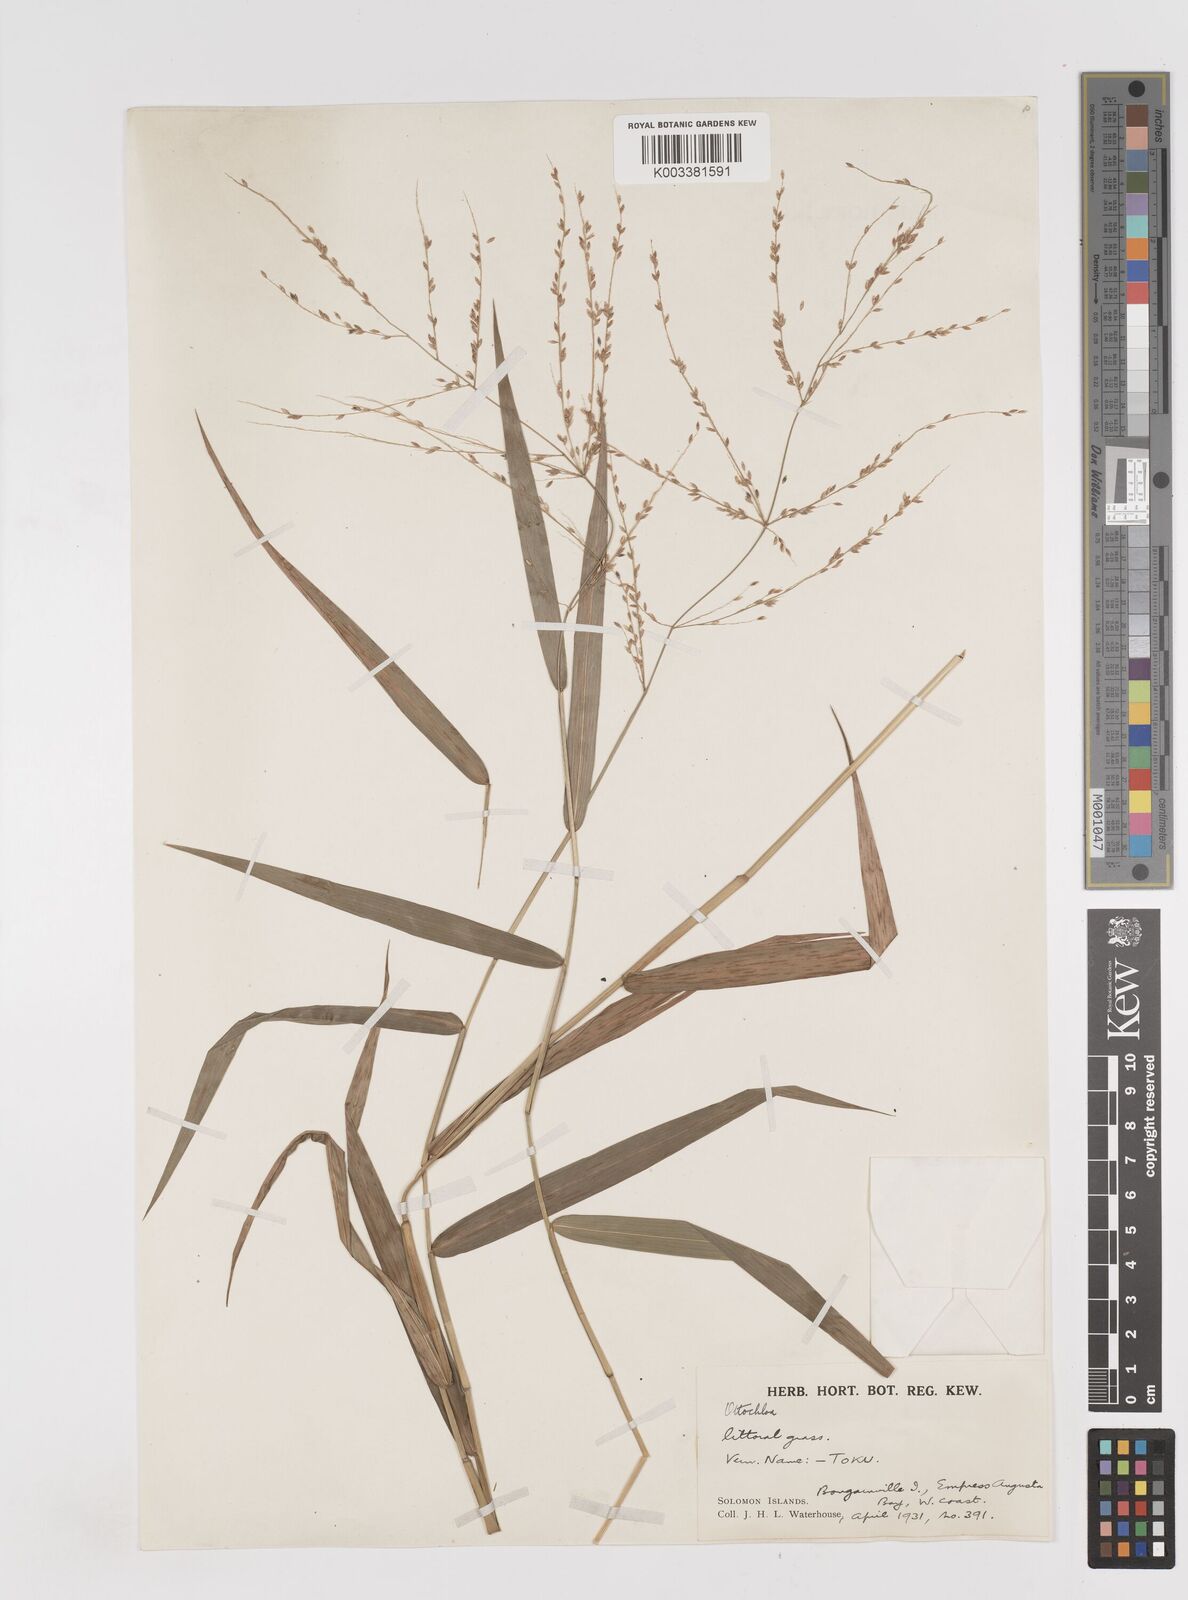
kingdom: Plantae
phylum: Tracheophyta
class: Liliopsida
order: Poales
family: Poaceae
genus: Ottochloa
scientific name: Ottochloa nodosa
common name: Slender-panic grass
